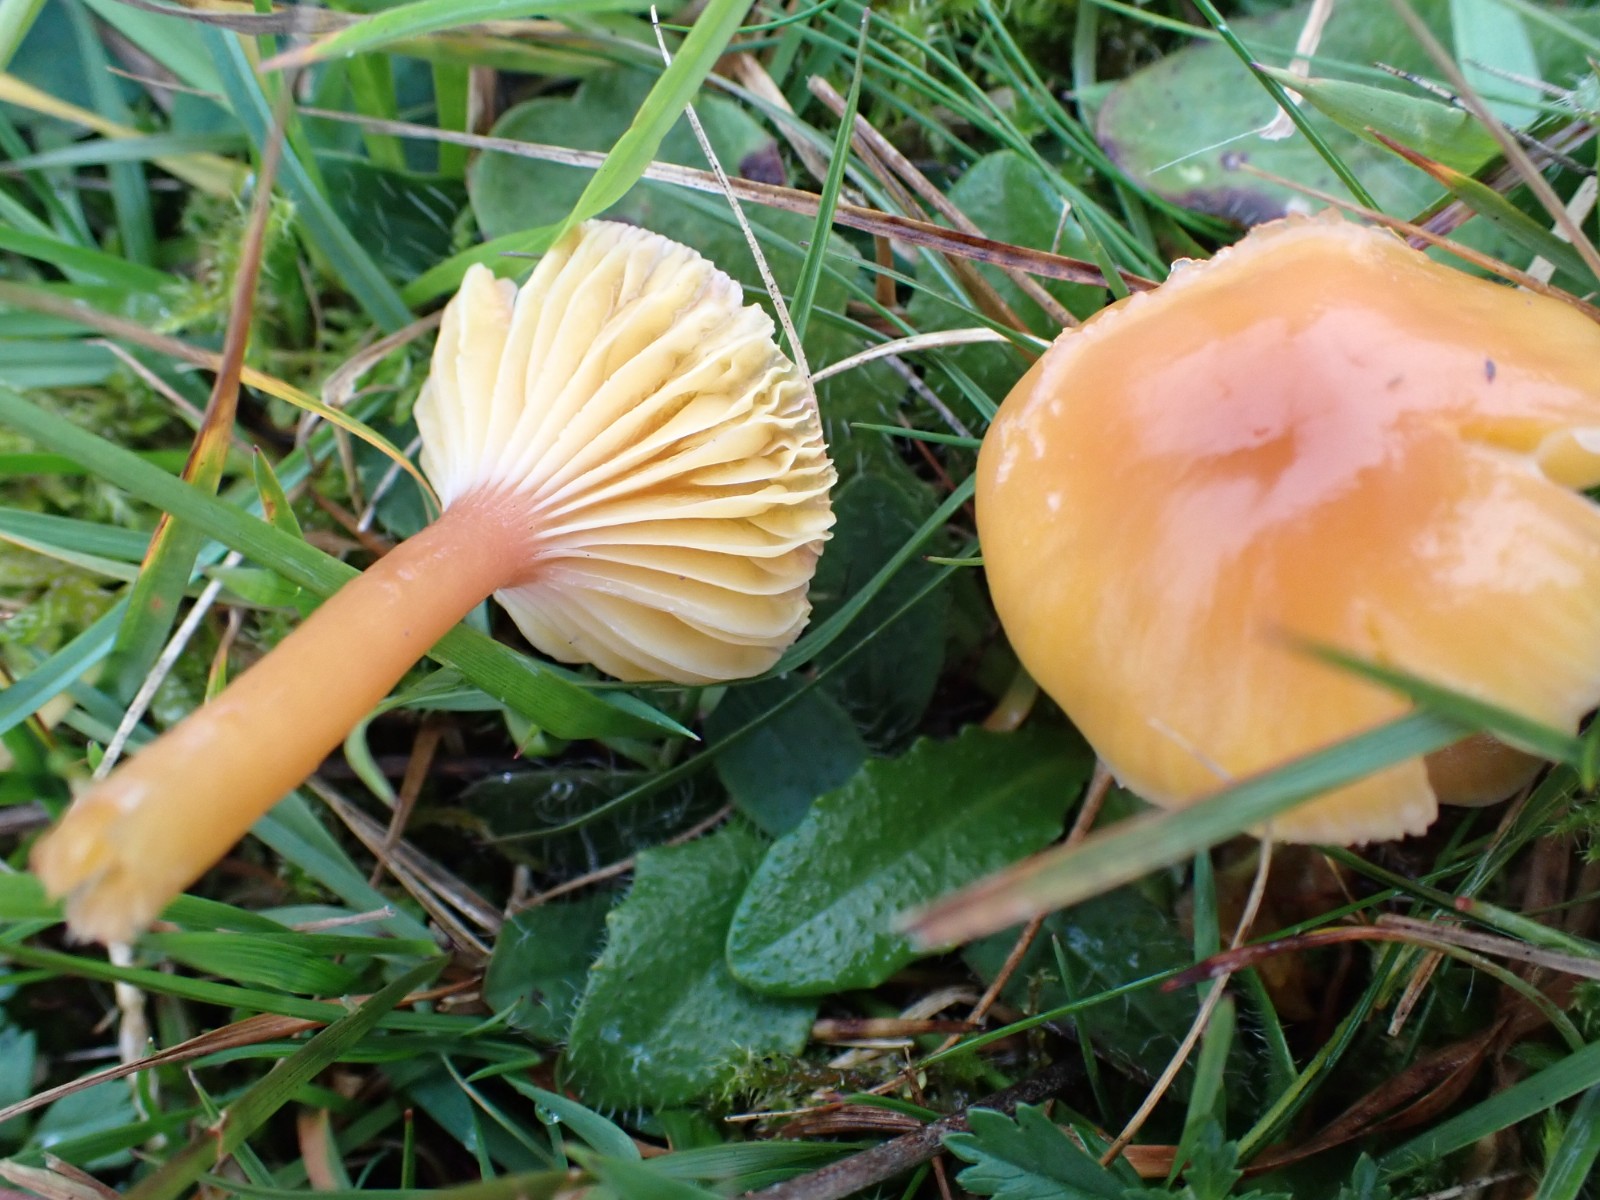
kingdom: Fungi
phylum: Basidiomycota
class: Agaricomycetes
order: Agaricales
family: Hygrophoraceae
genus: Gliophorus
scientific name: Gliophorus laetus
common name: brusk-vokshat
